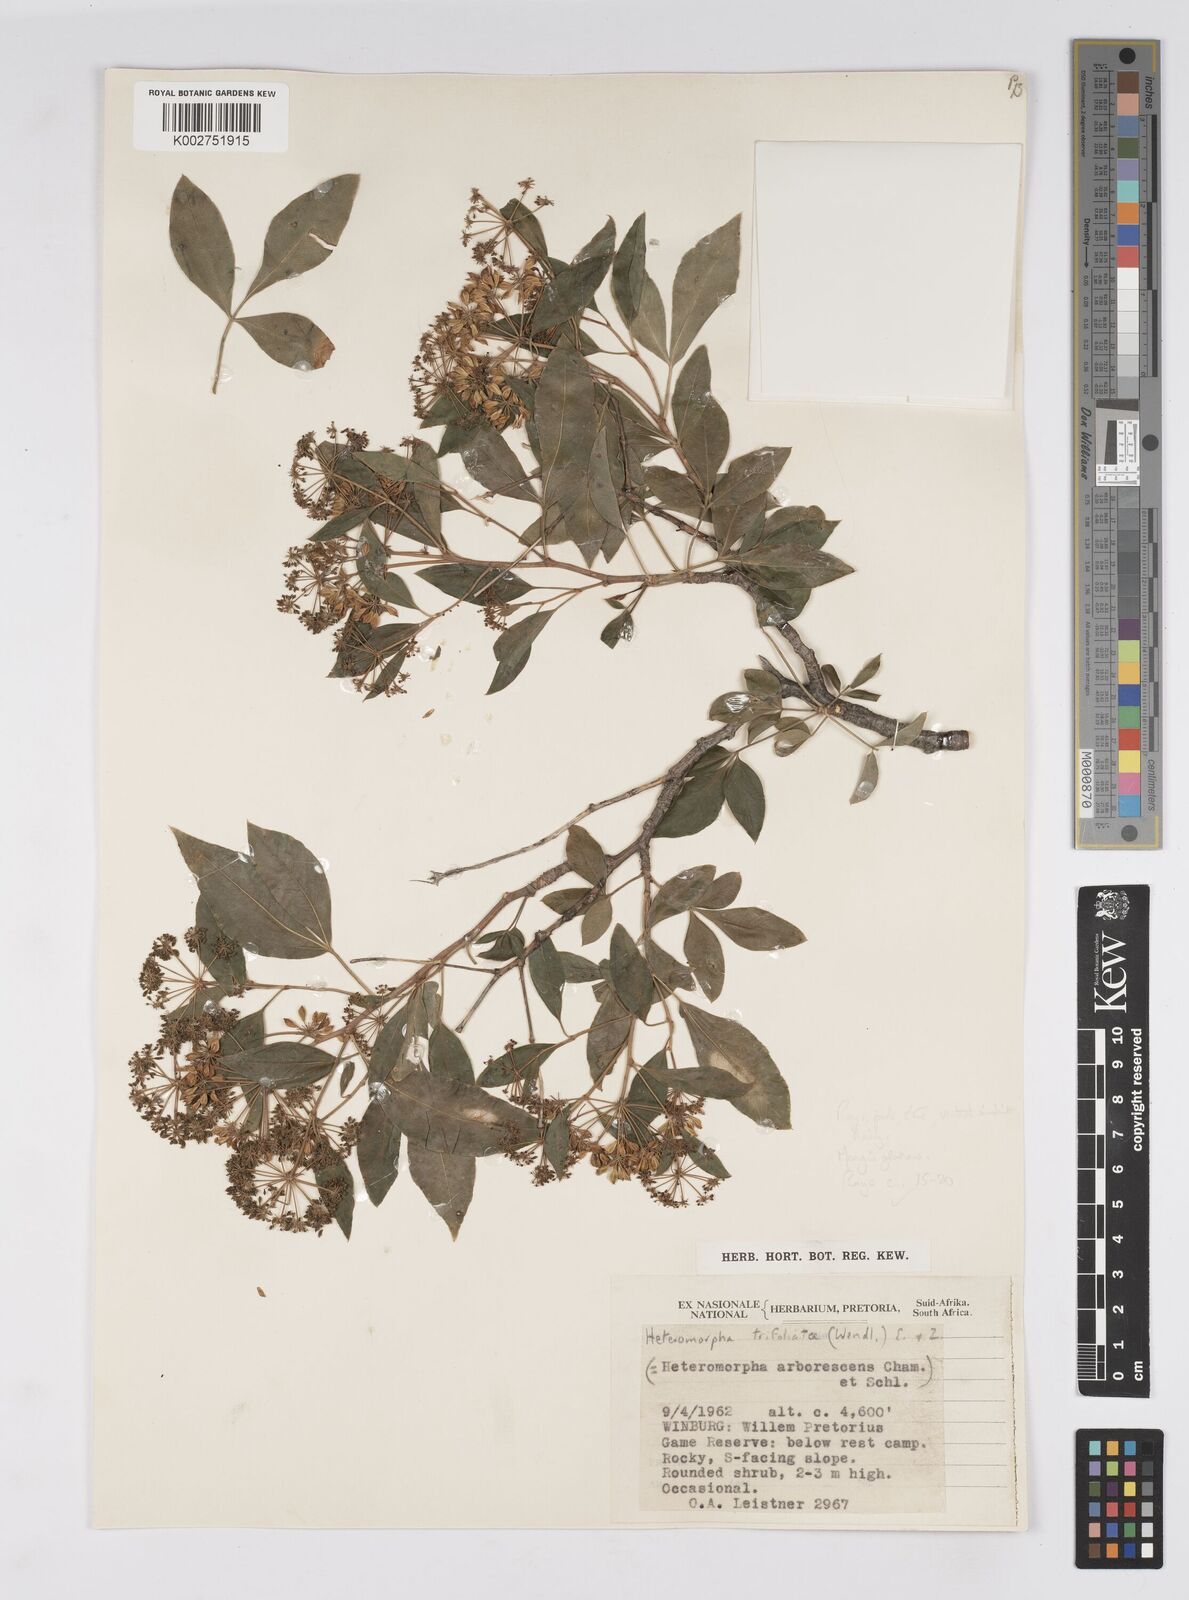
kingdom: Plantae
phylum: Tracheophyta
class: Magnoliopsida
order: Apiales
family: Apiaceae
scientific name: Apiaceae
